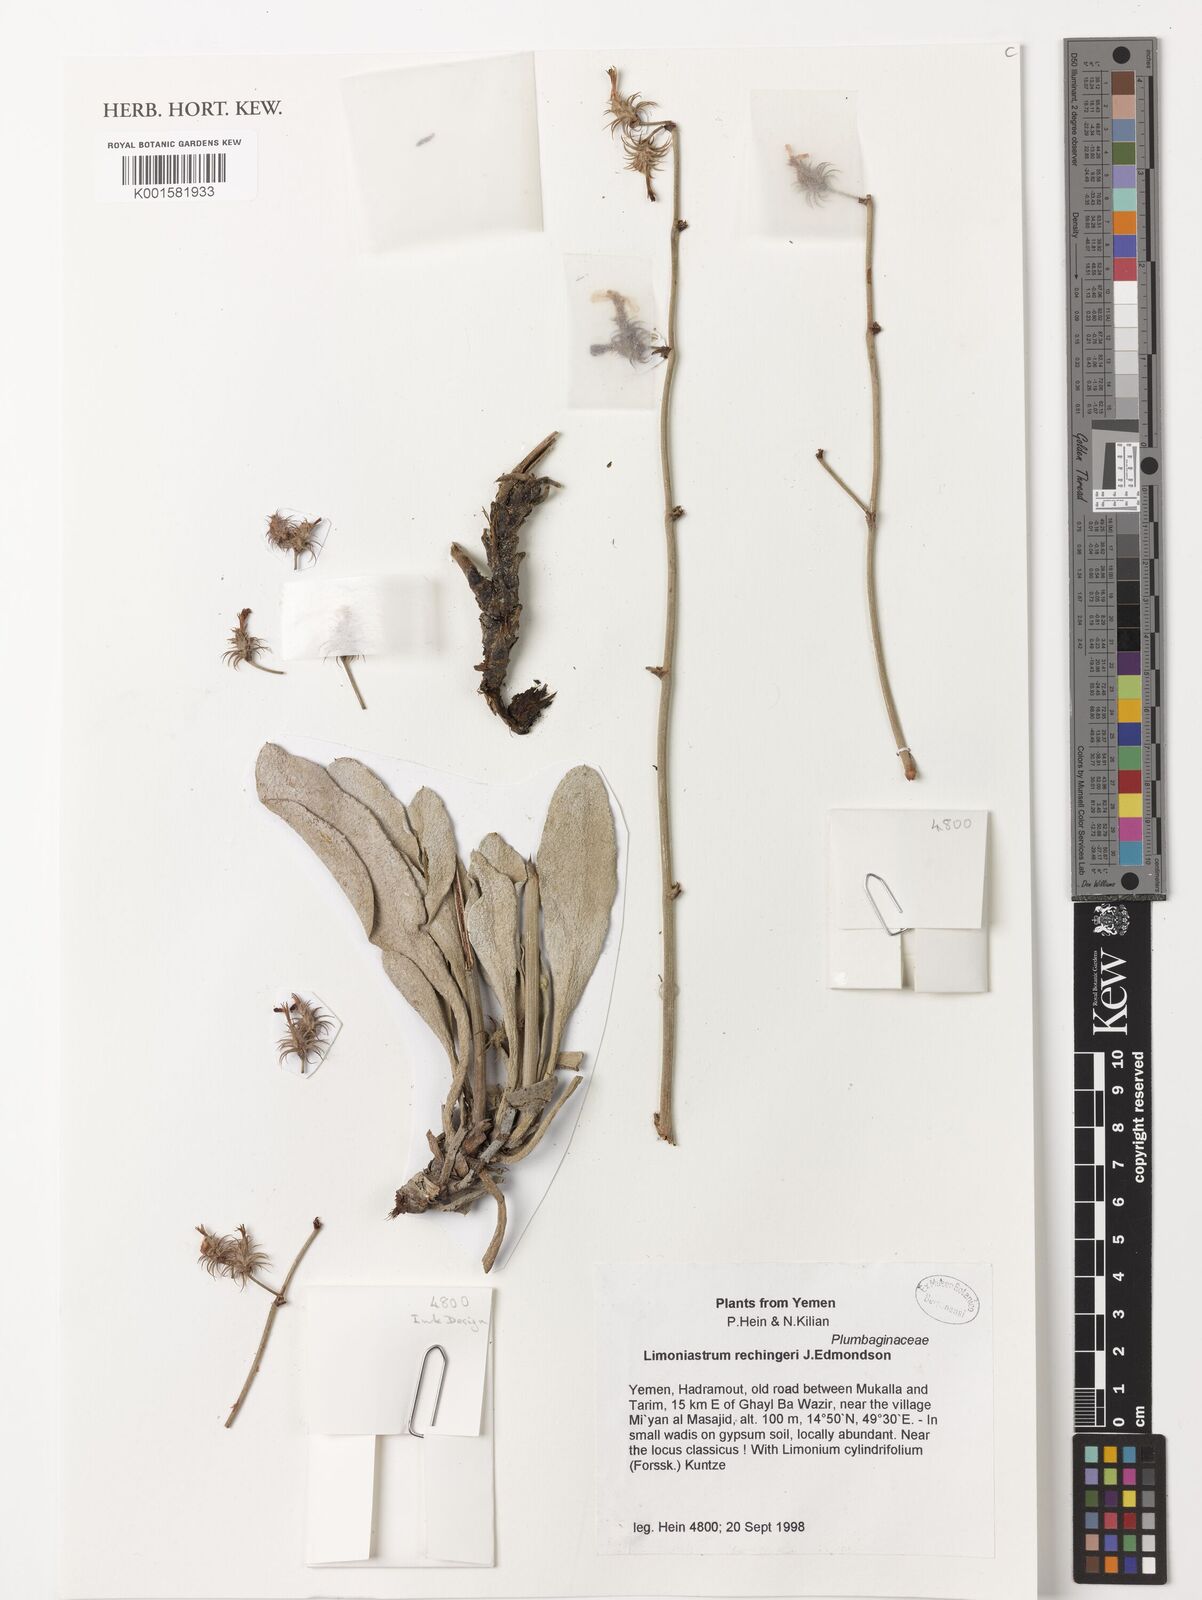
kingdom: Plantae
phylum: Tracheophyta
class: Magnoliopsida
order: Caryophyllales
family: Plumbaginaceae
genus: Ceratolimon
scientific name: Ceratolimon migiurtinum
